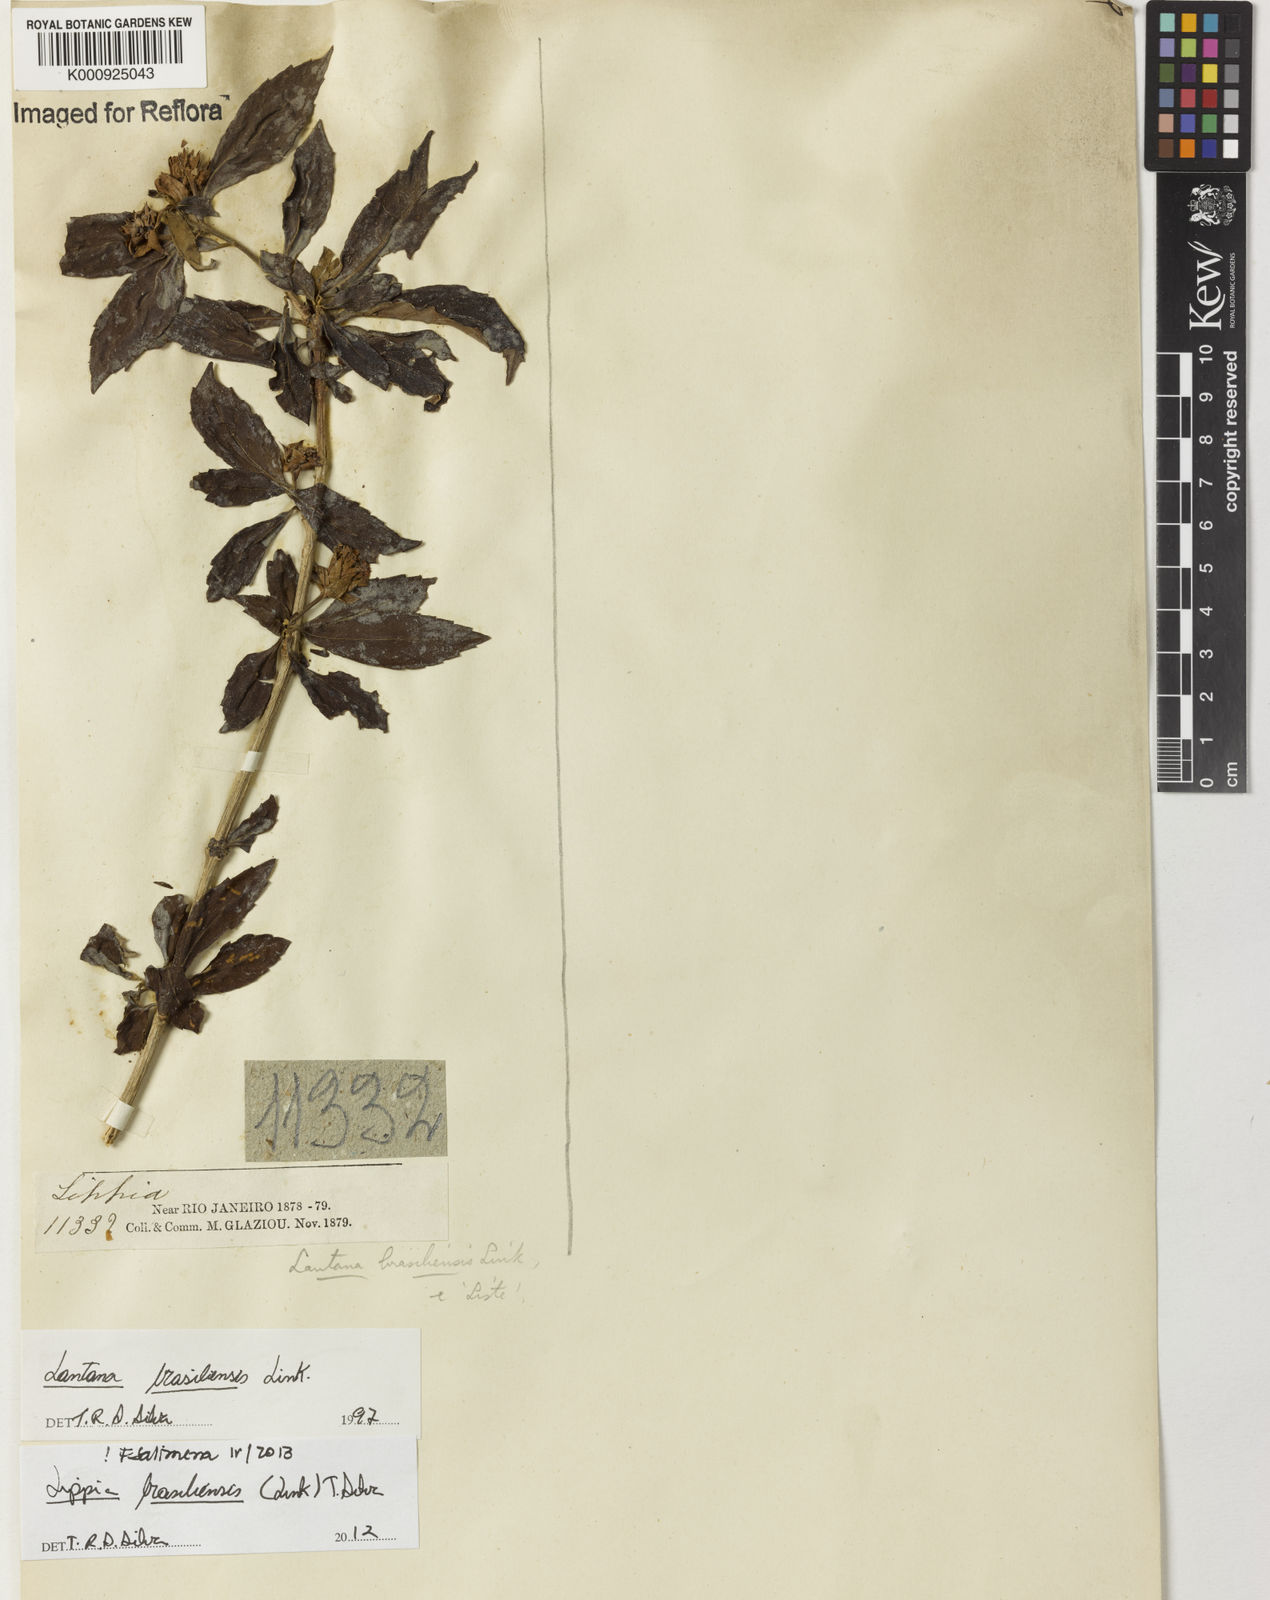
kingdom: Plantae
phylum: Tracheophyta
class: Magnoliopsida
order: Lamiales
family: Verbenaceae
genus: Lippia
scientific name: Lippia brasiliensis
